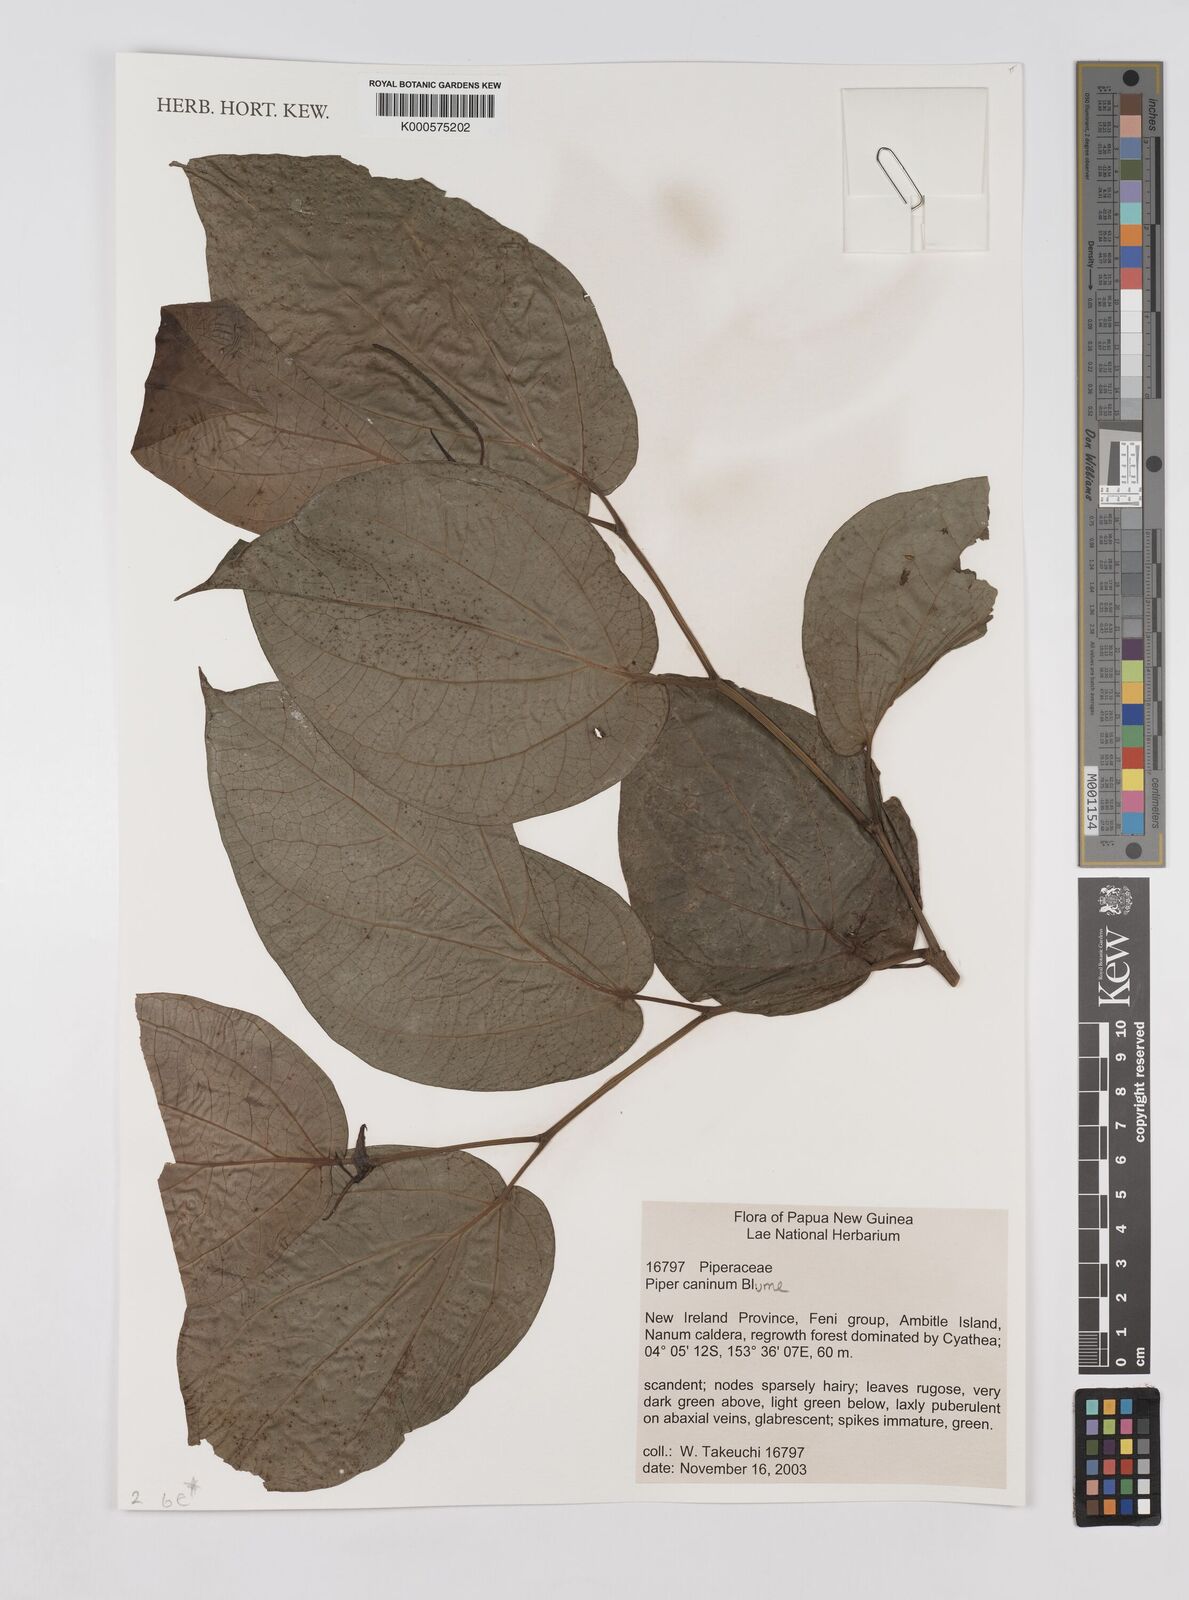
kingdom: Plantae
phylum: Tracheophyta
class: Magnoliopsida
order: Piperales
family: Piperaceae
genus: Piper
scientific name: Piper lanatum
